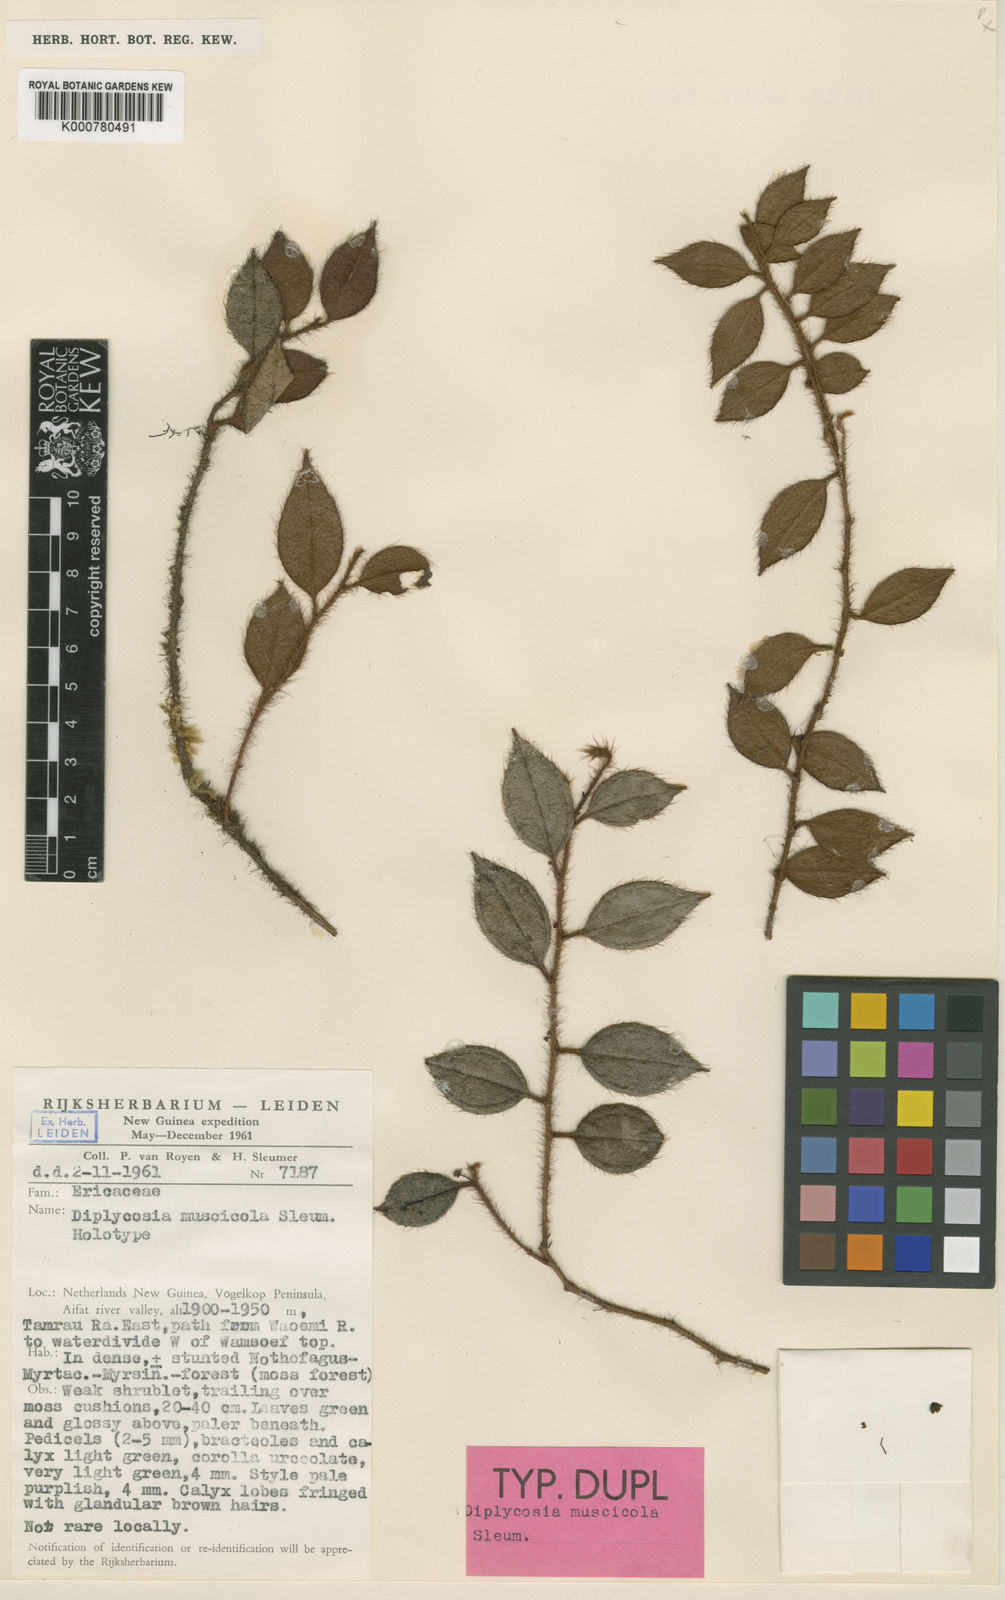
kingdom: Plantae
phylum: Tracheophyta
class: Magnoliopsida
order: Ericales
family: Ericaceae
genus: Gaultheria
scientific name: Gaultheria muscicola
